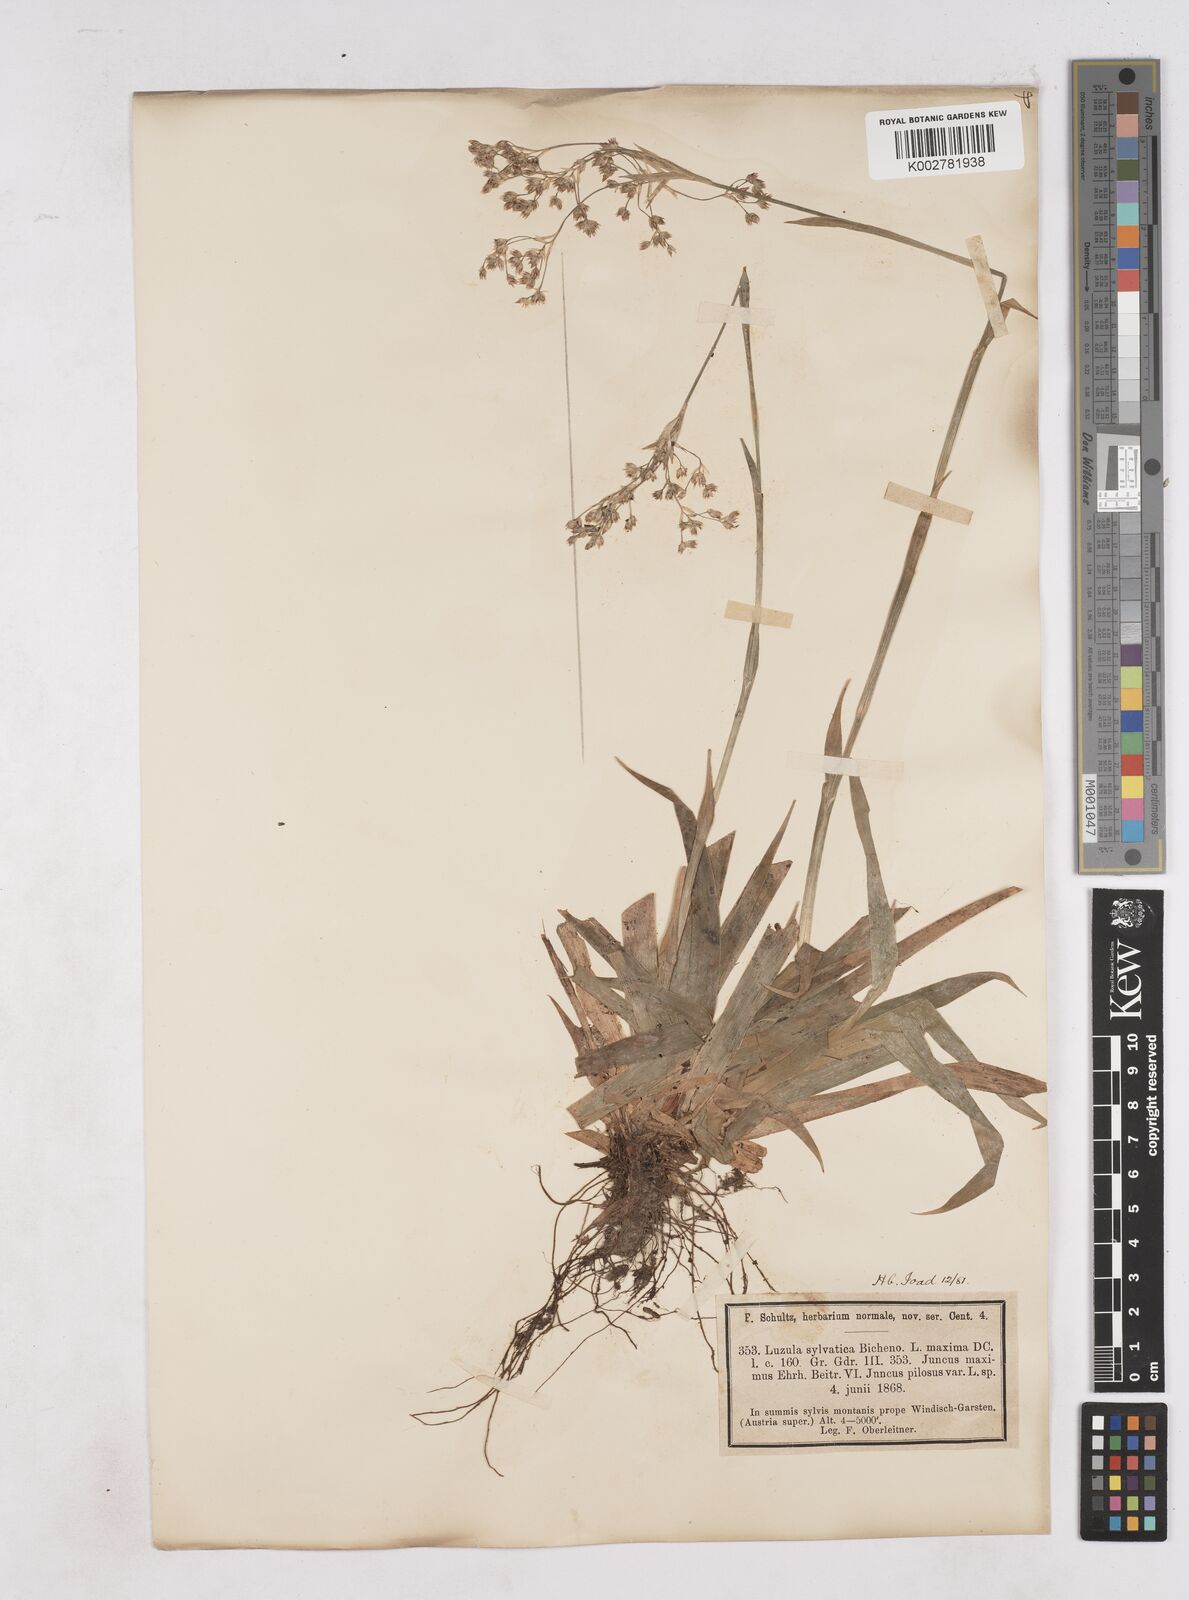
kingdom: Plantae
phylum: Tracheophyta
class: Liliopsida
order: Poales
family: Juncaceae
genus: Luzula
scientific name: Luzula sylvatica
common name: Great wood-rush
